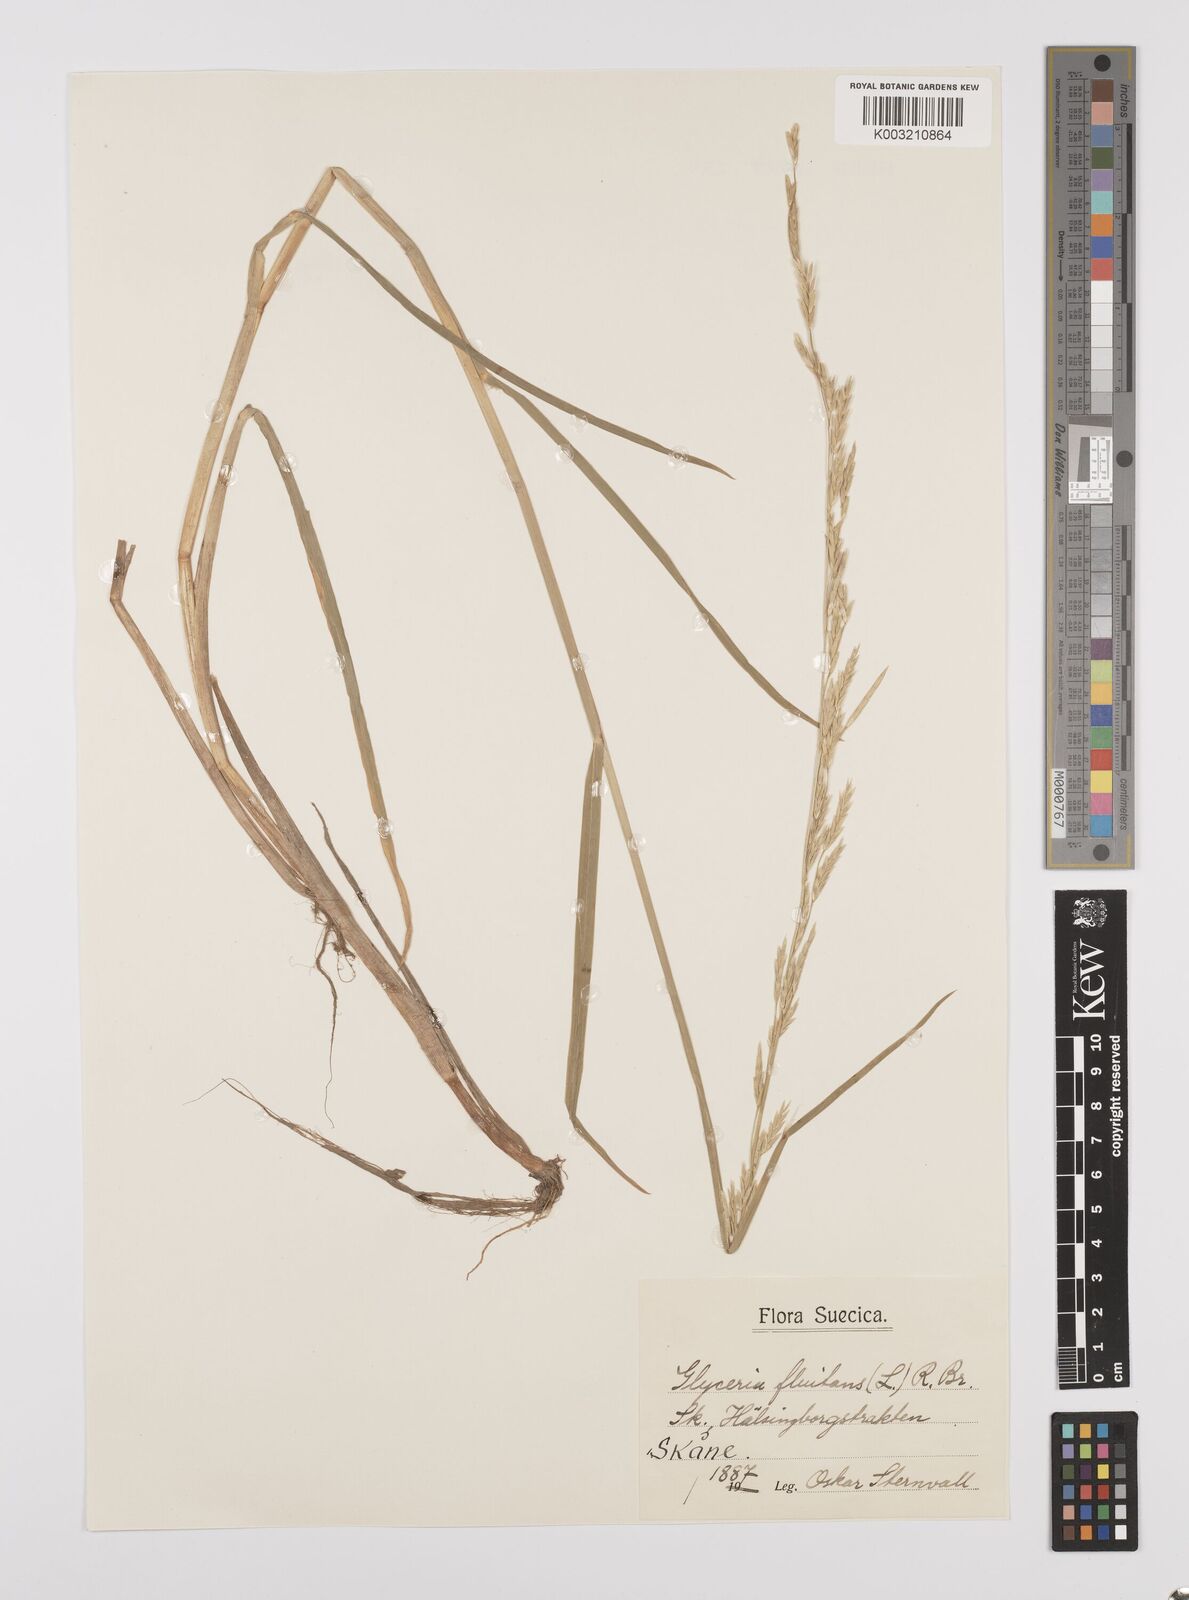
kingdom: Plantae
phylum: Tracheophyta
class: Liliopsida
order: Poales
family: Poaceae
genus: Glyceria
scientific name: Glyceria fluitans
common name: Floating sweet-grass
